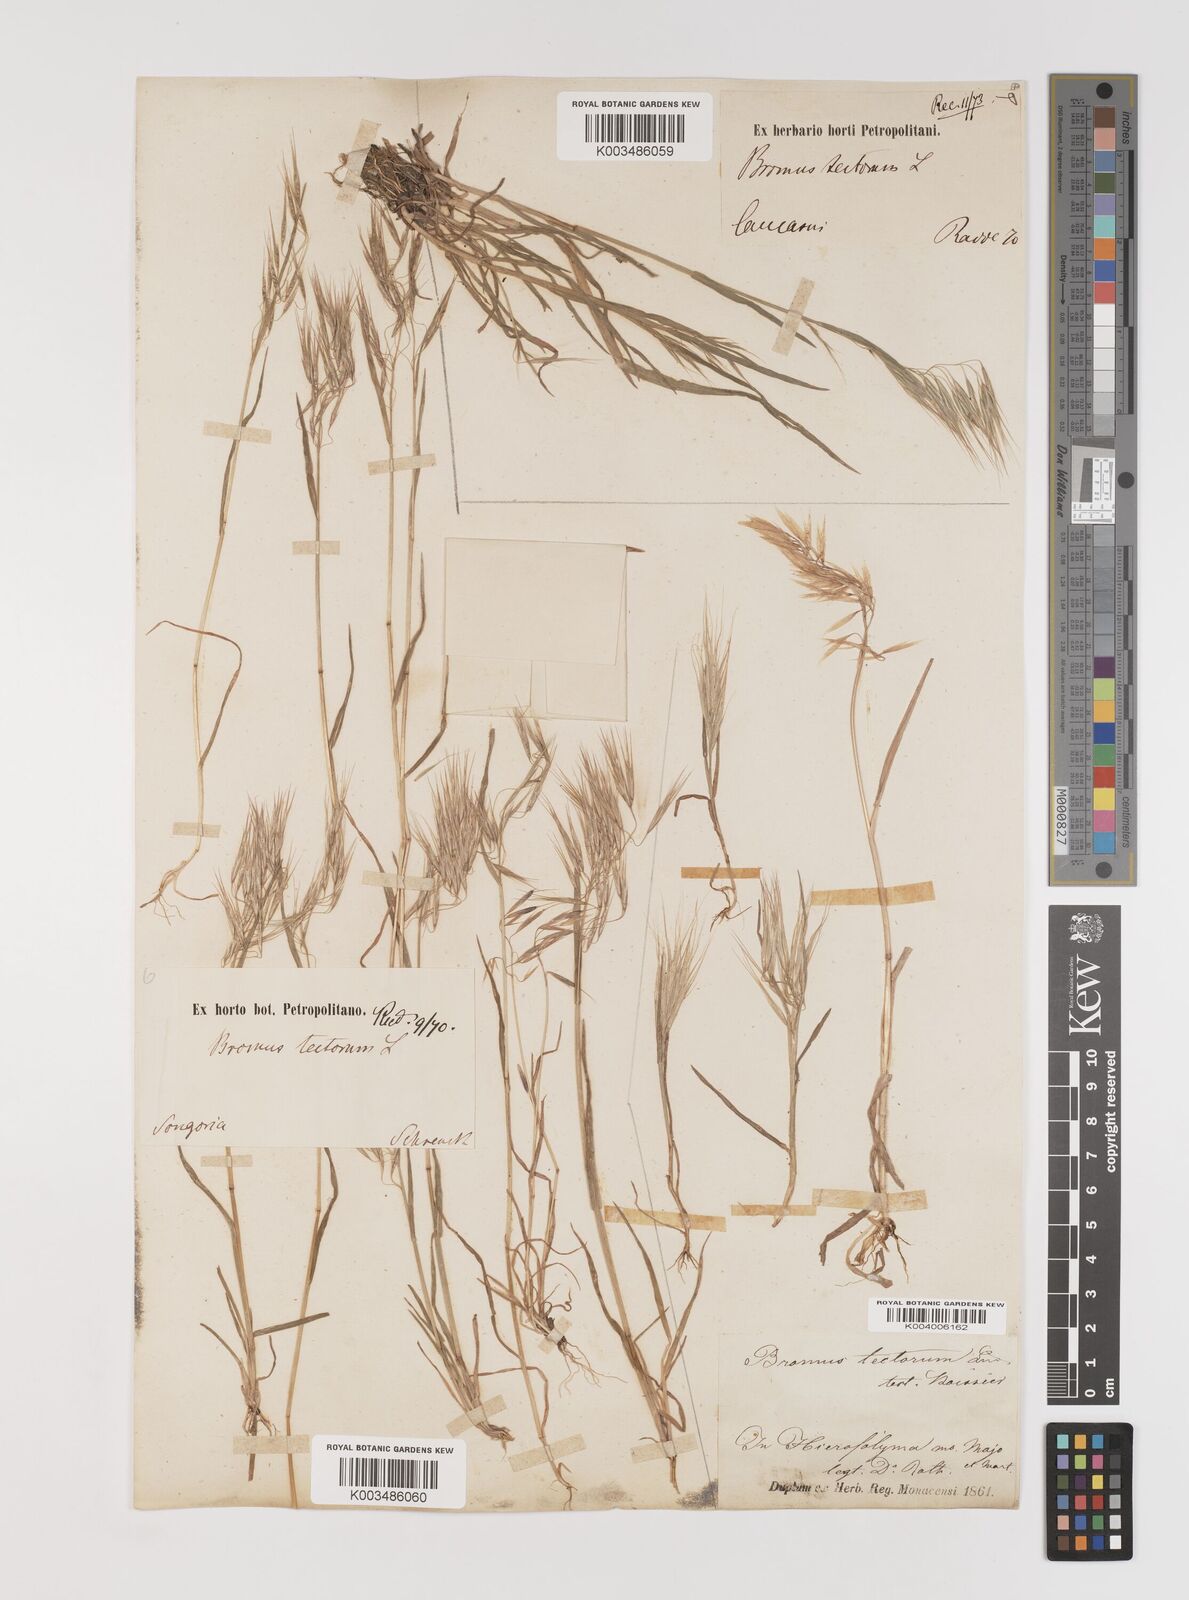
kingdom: Plantae
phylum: Tracheophyta
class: Liliopsida
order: Poales
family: Poaceae
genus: Bromus
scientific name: Bromus tectorum
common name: Cheatgrass
